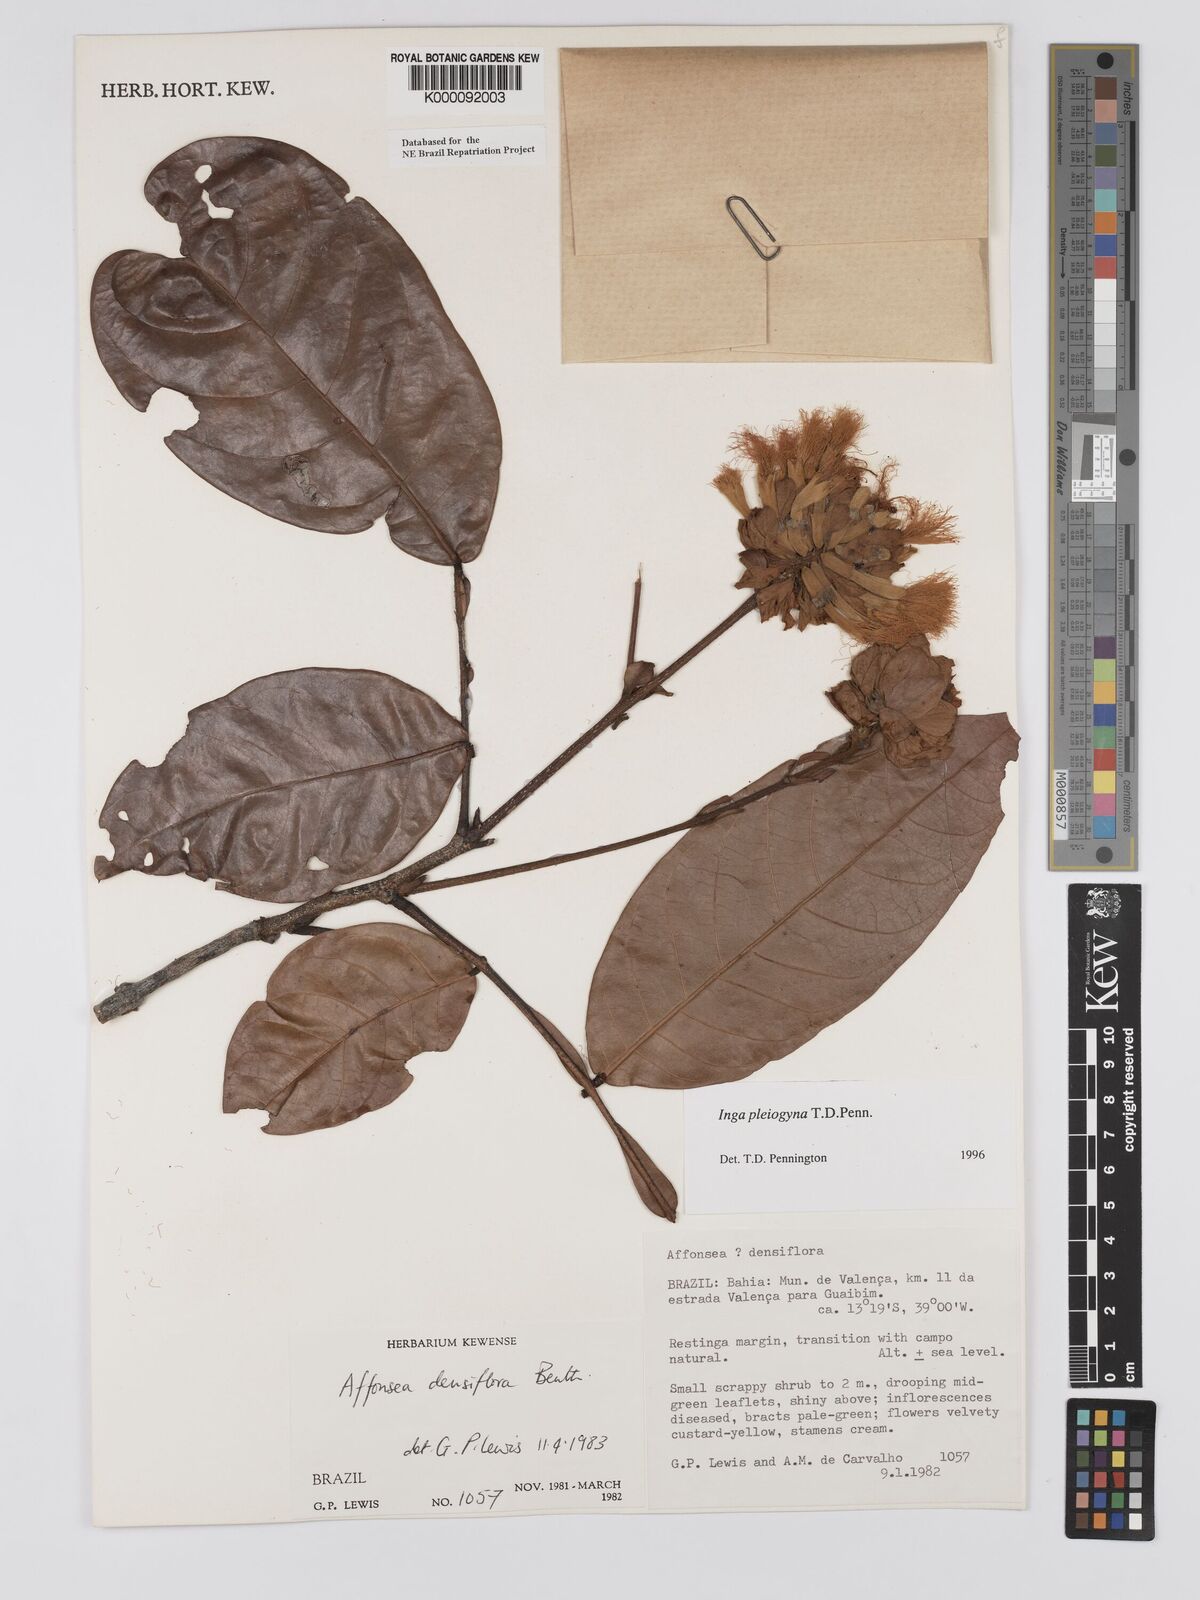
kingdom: Plantae
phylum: Tracheophyta
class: Magnoliopsida
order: Fabales
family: Fabaceae
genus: Inga
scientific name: Inga pleiogyna
